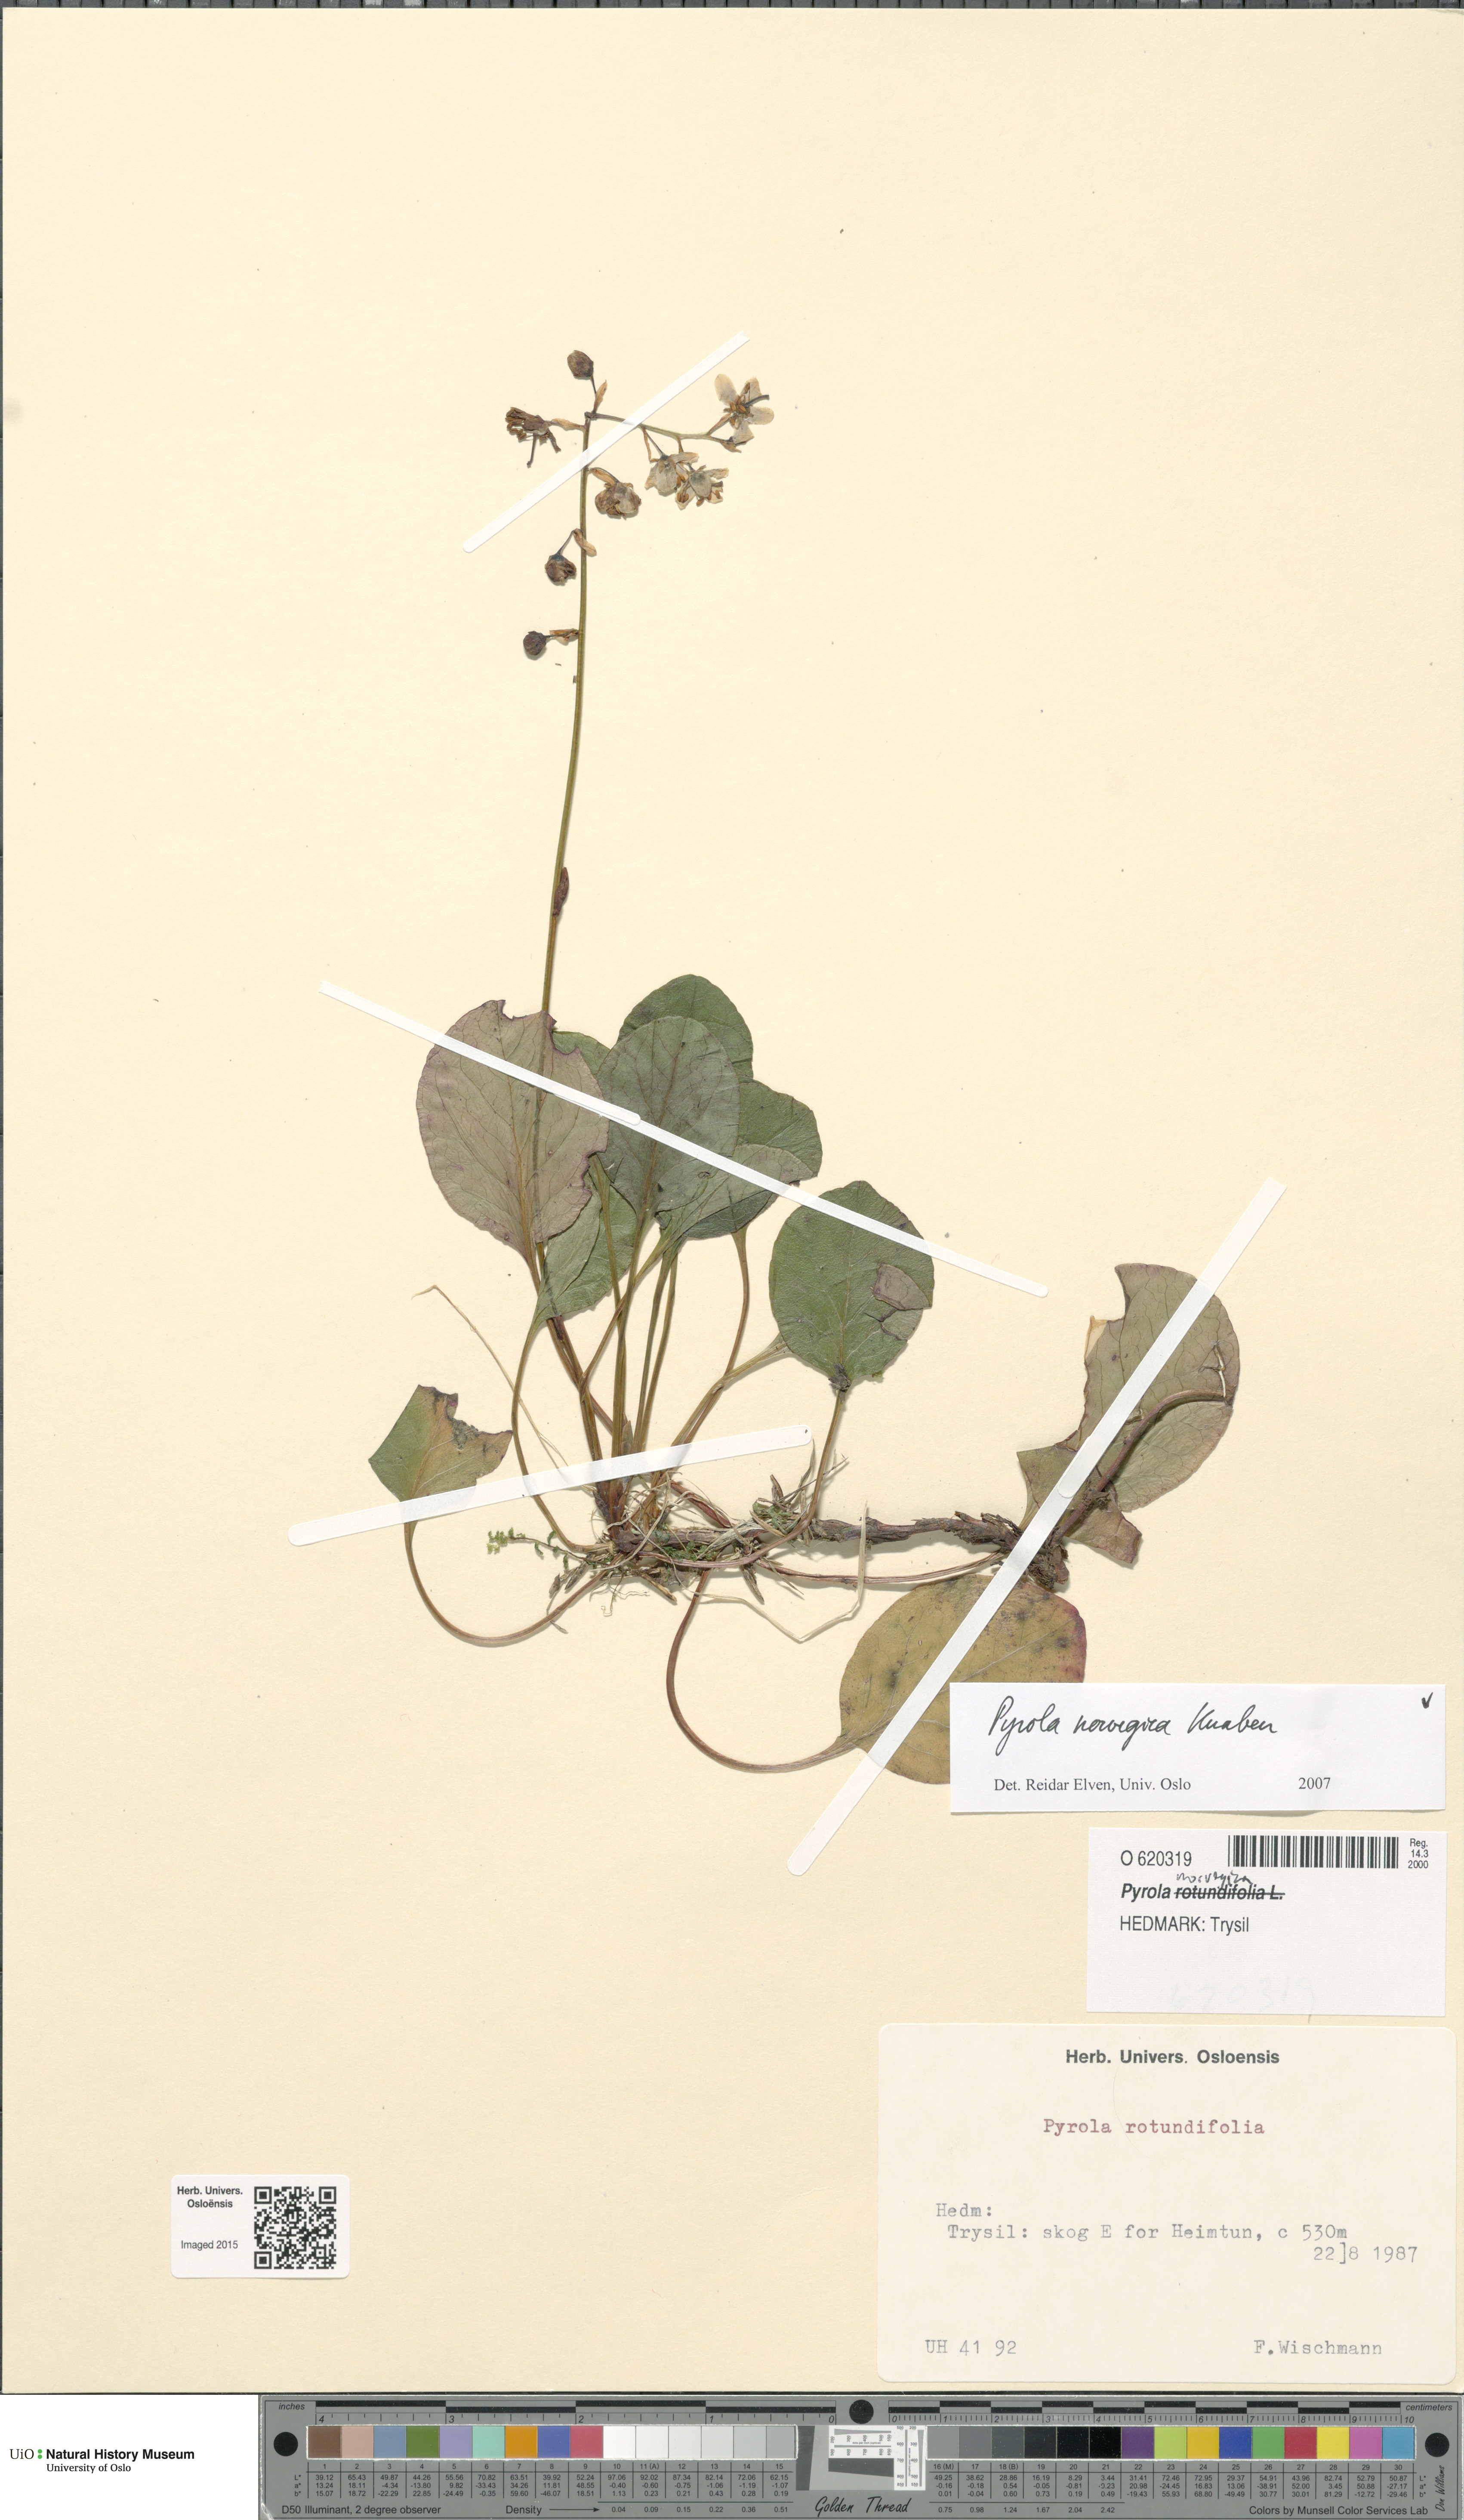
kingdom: Plantae
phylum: Tracheophyta
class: Magnoliopsida
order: Ericales
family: Ericaceae
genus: Pyrola
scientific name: Pyrola rotundifolia
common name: Round-leaved wintergreen
